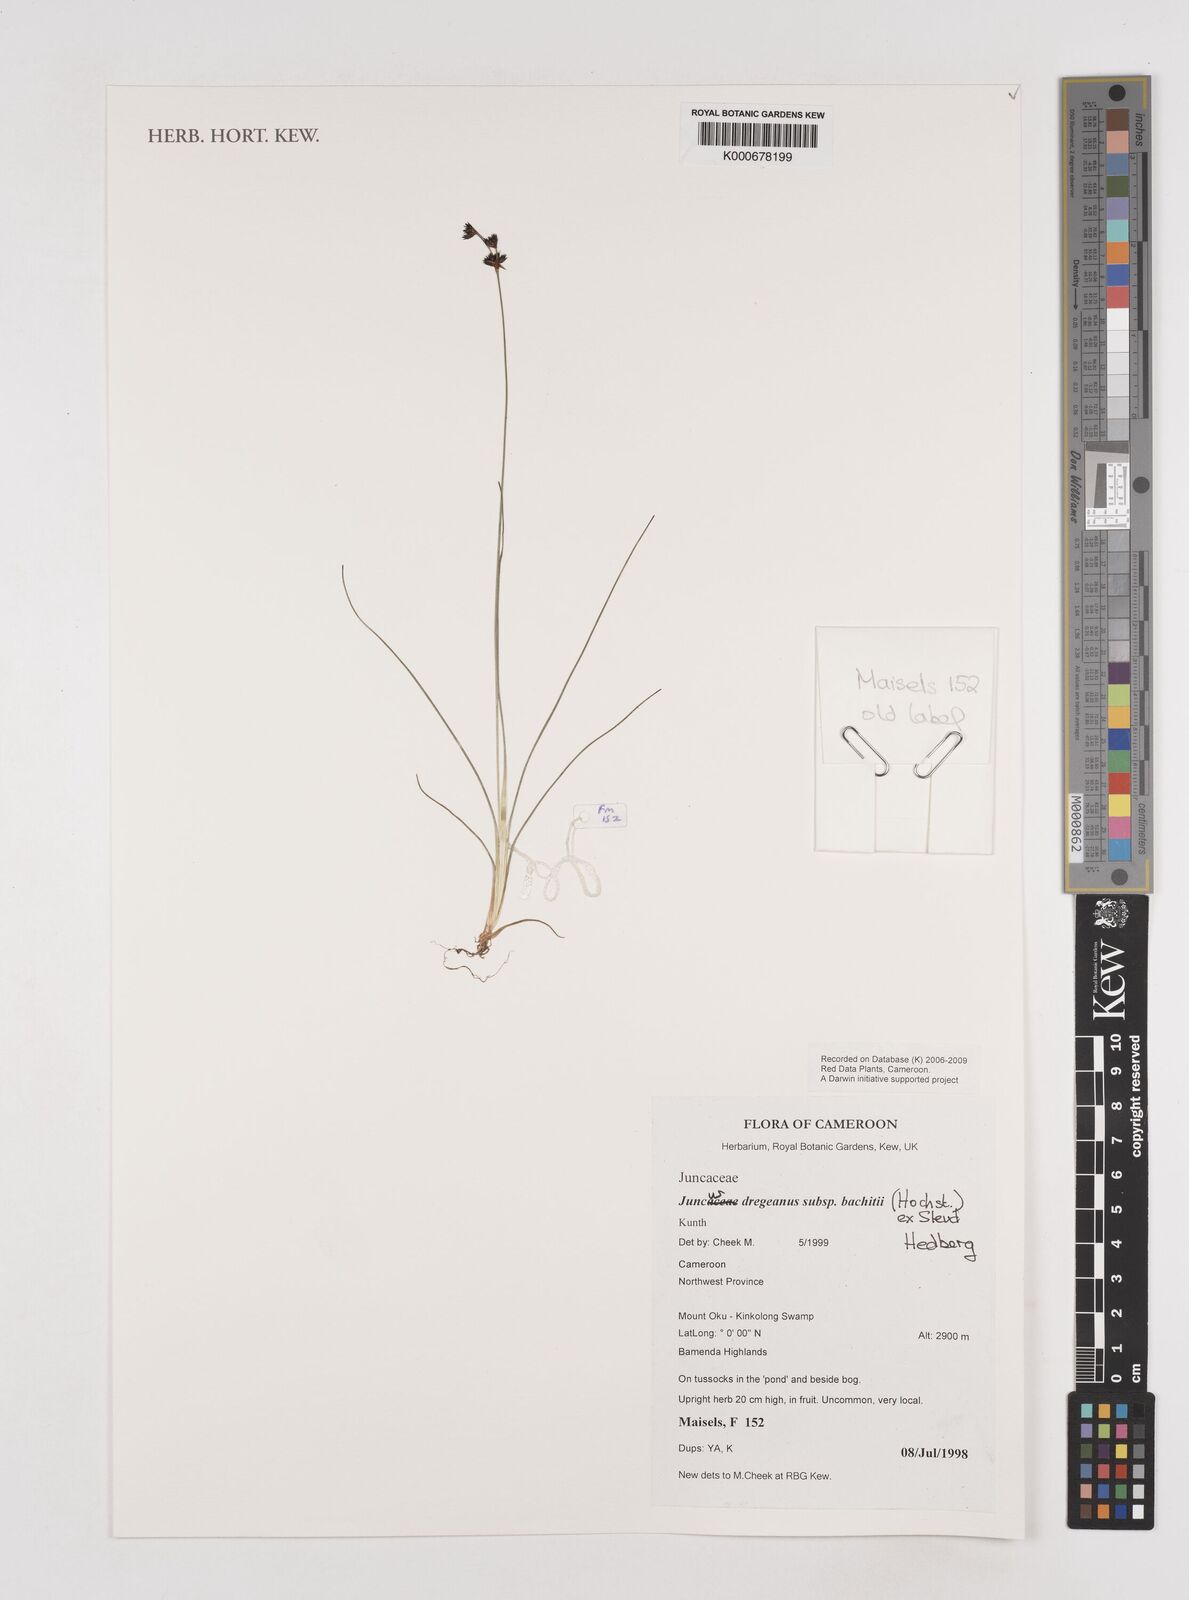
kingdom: Plantae
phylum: Tracheophyta
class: Liliopsida
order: Poales
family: Juncaceae
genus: Juncus
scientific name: Juncus dregeanus
